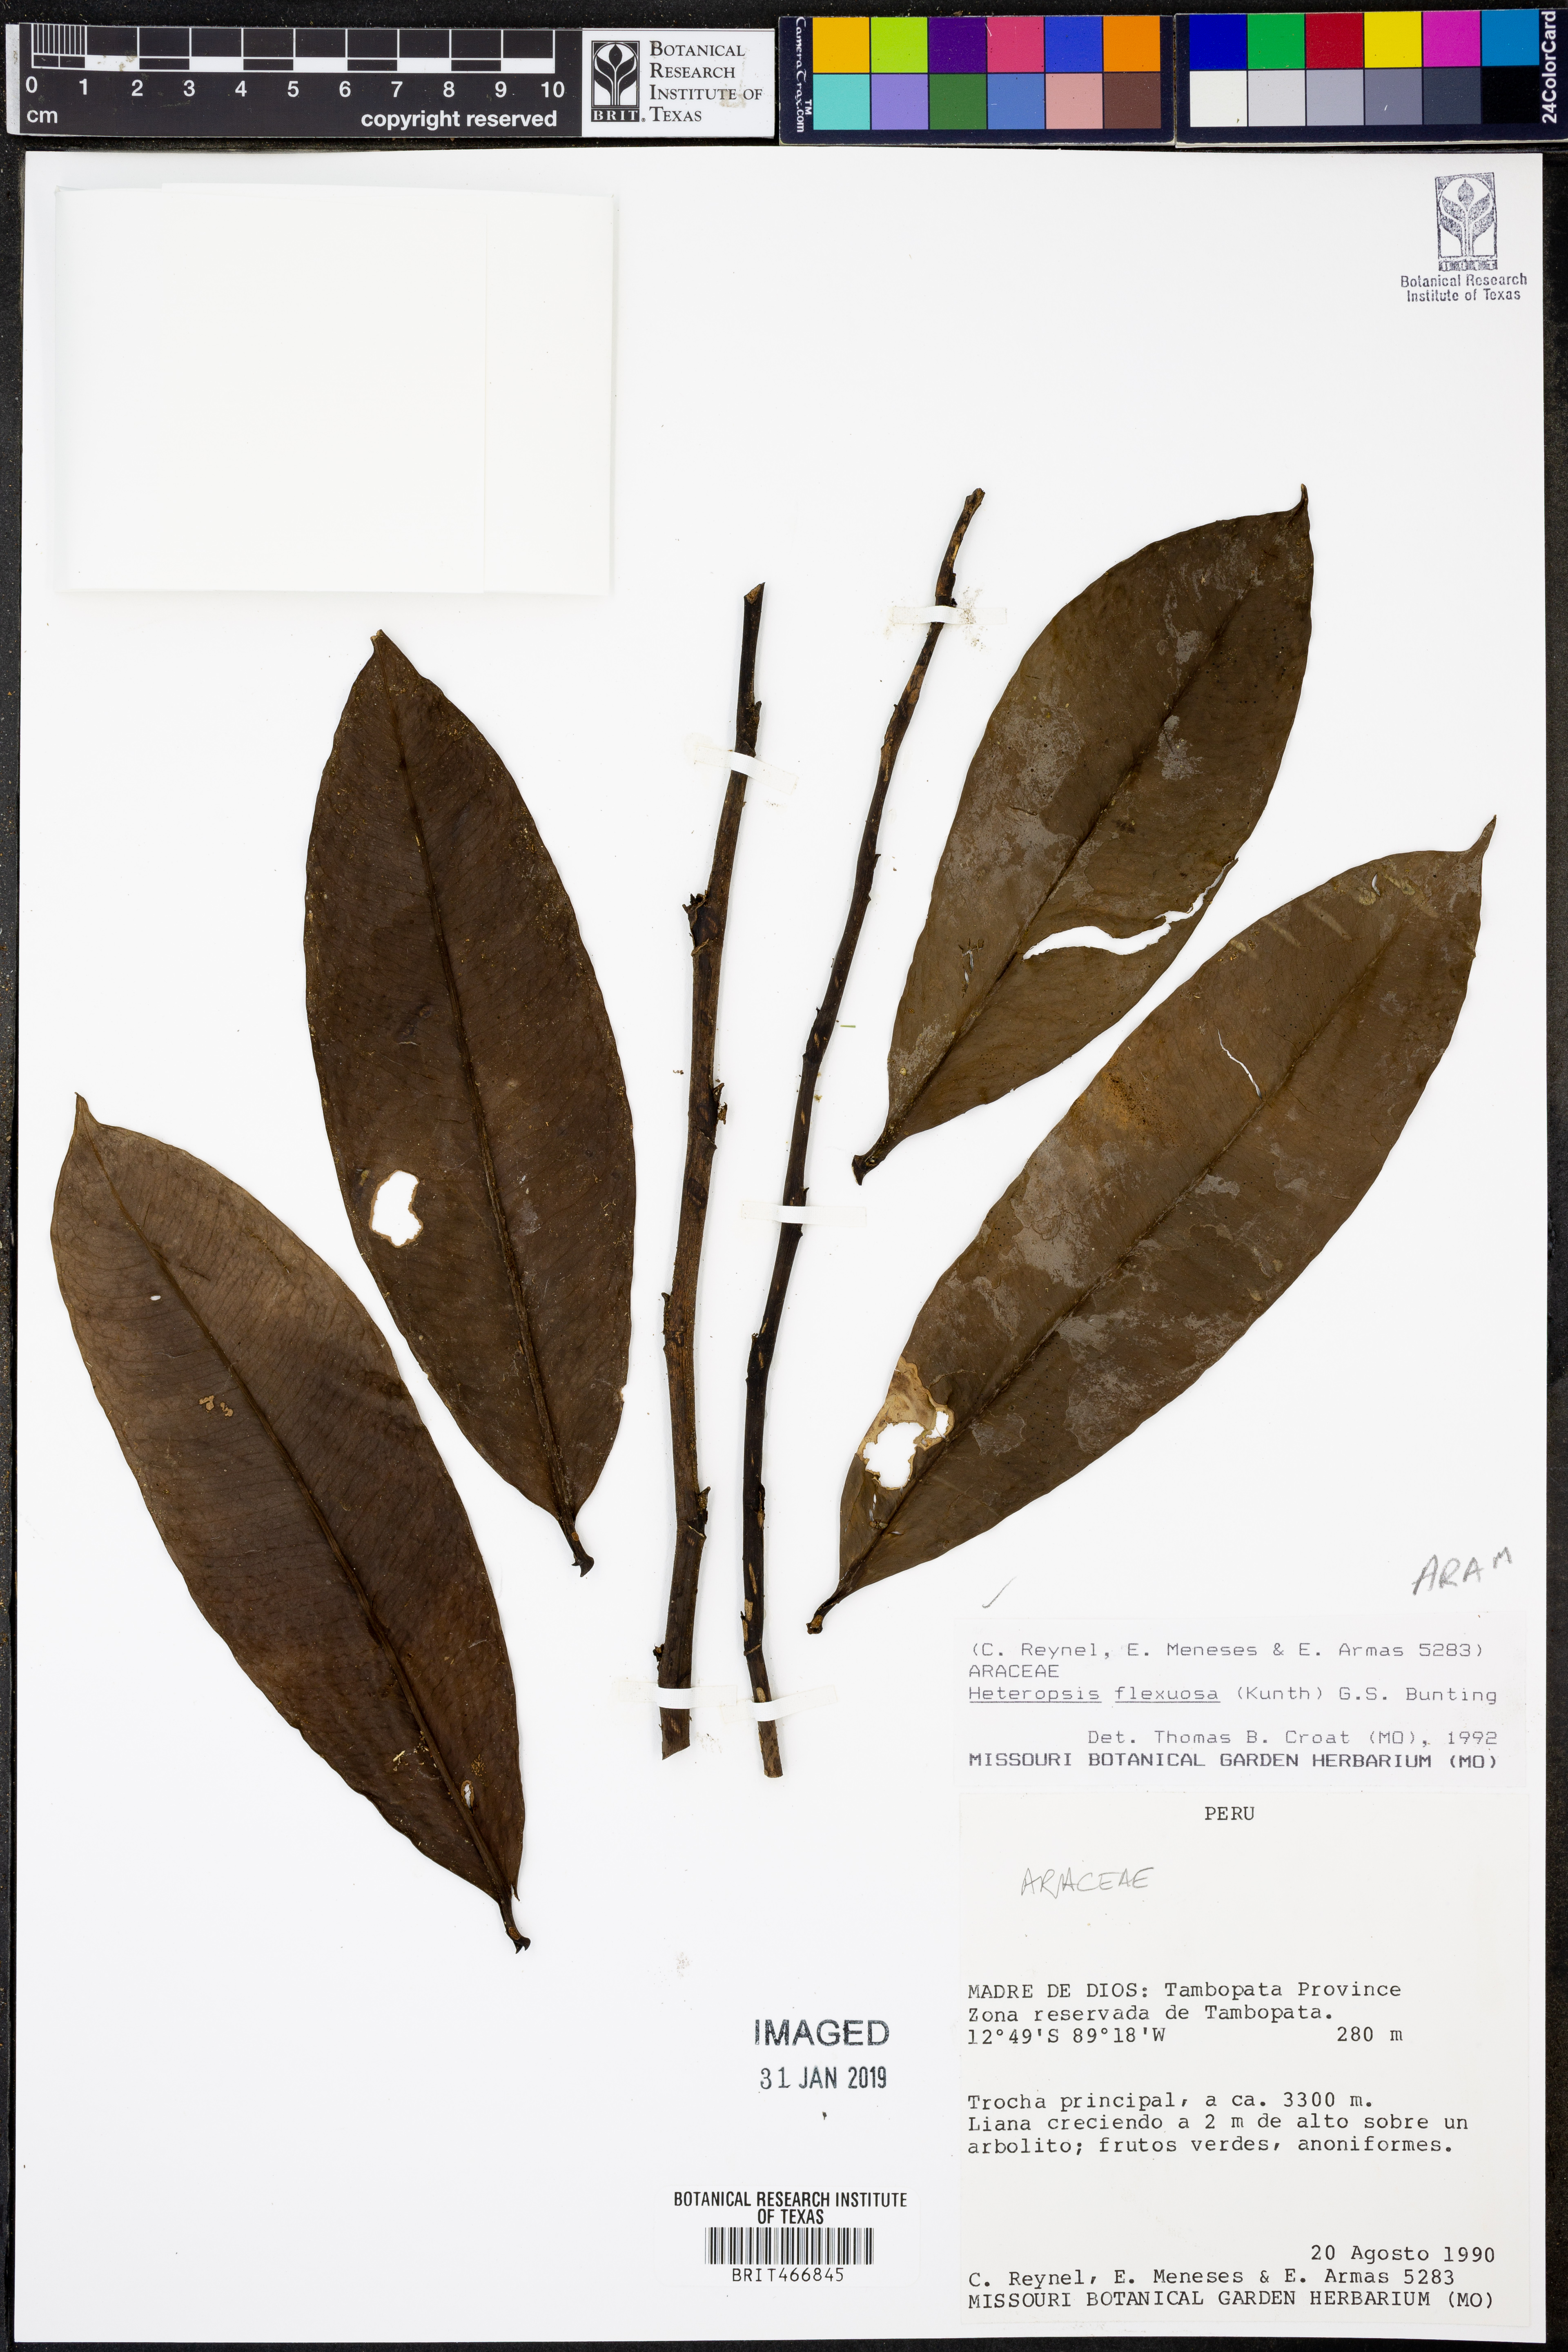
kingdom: Plantae
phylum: Tracheophyta
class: Liliopsida
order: Alismatales
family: Araceae
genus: Heteropsis
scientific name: Heteropsis flexuosa
